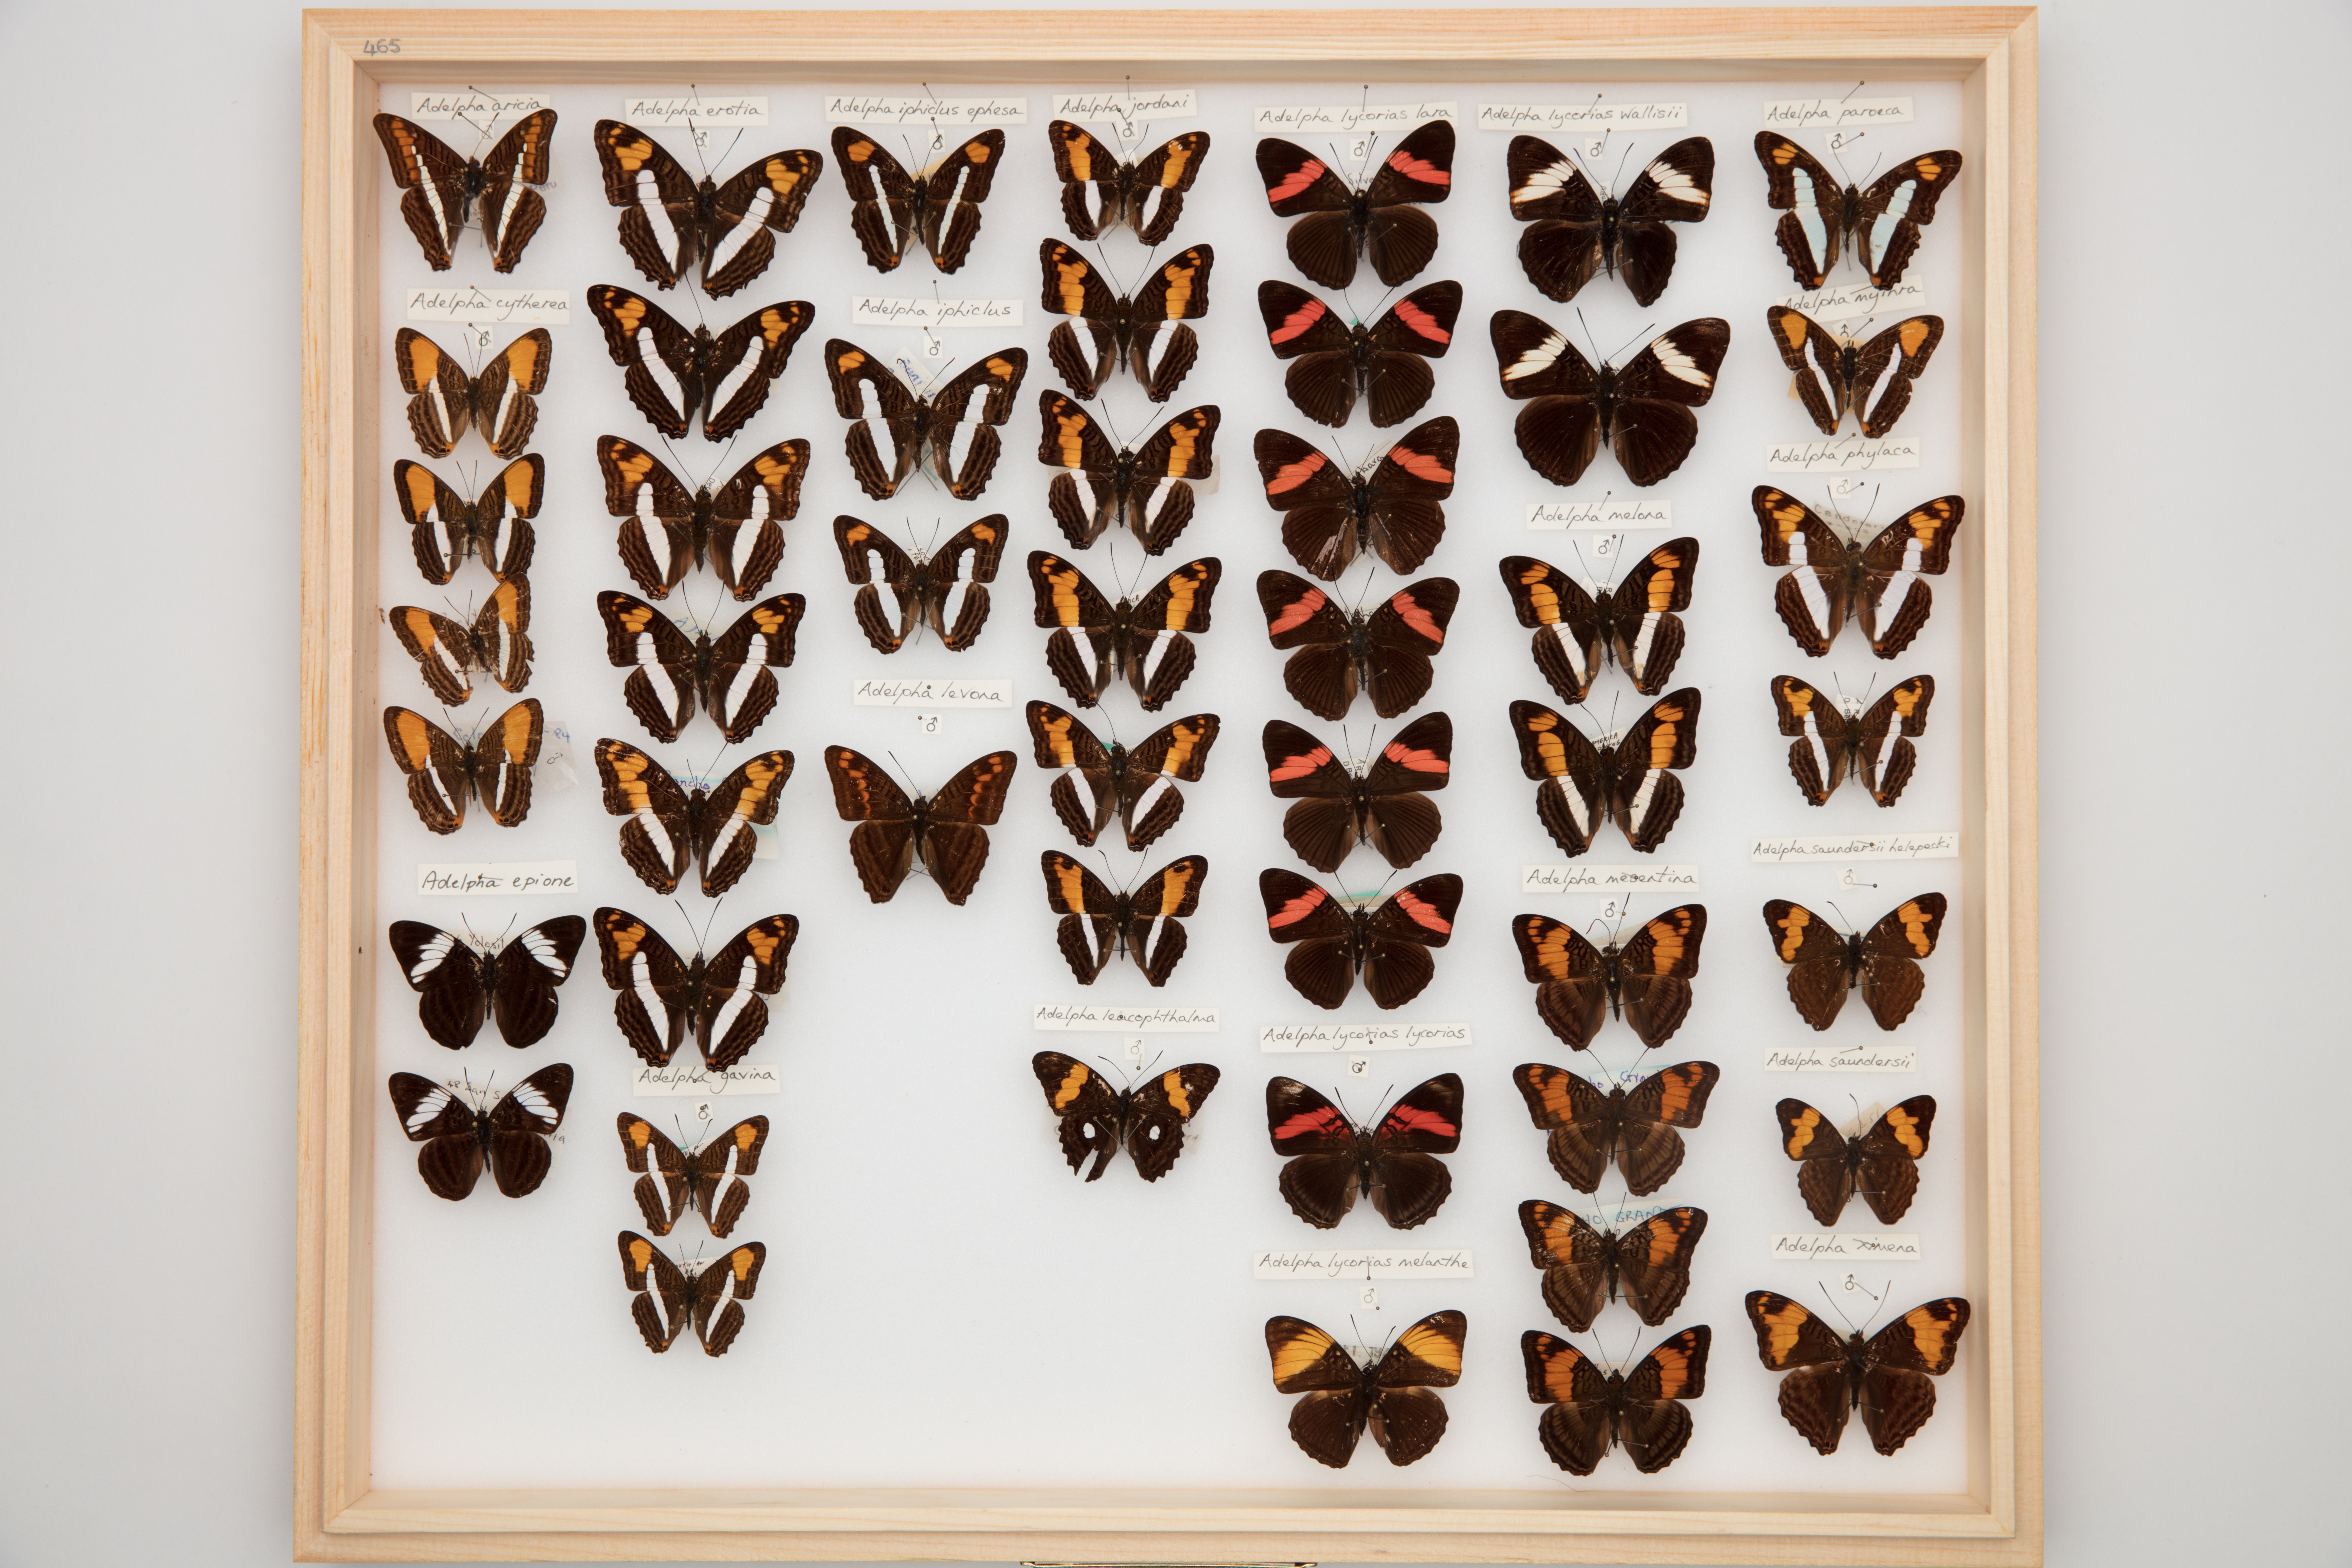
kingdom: Animalia
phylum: Arthropoda
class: Insecta
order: Lepidoptera
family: Nymphalidae
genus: Limenitis
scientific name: Limenitis paroeca
